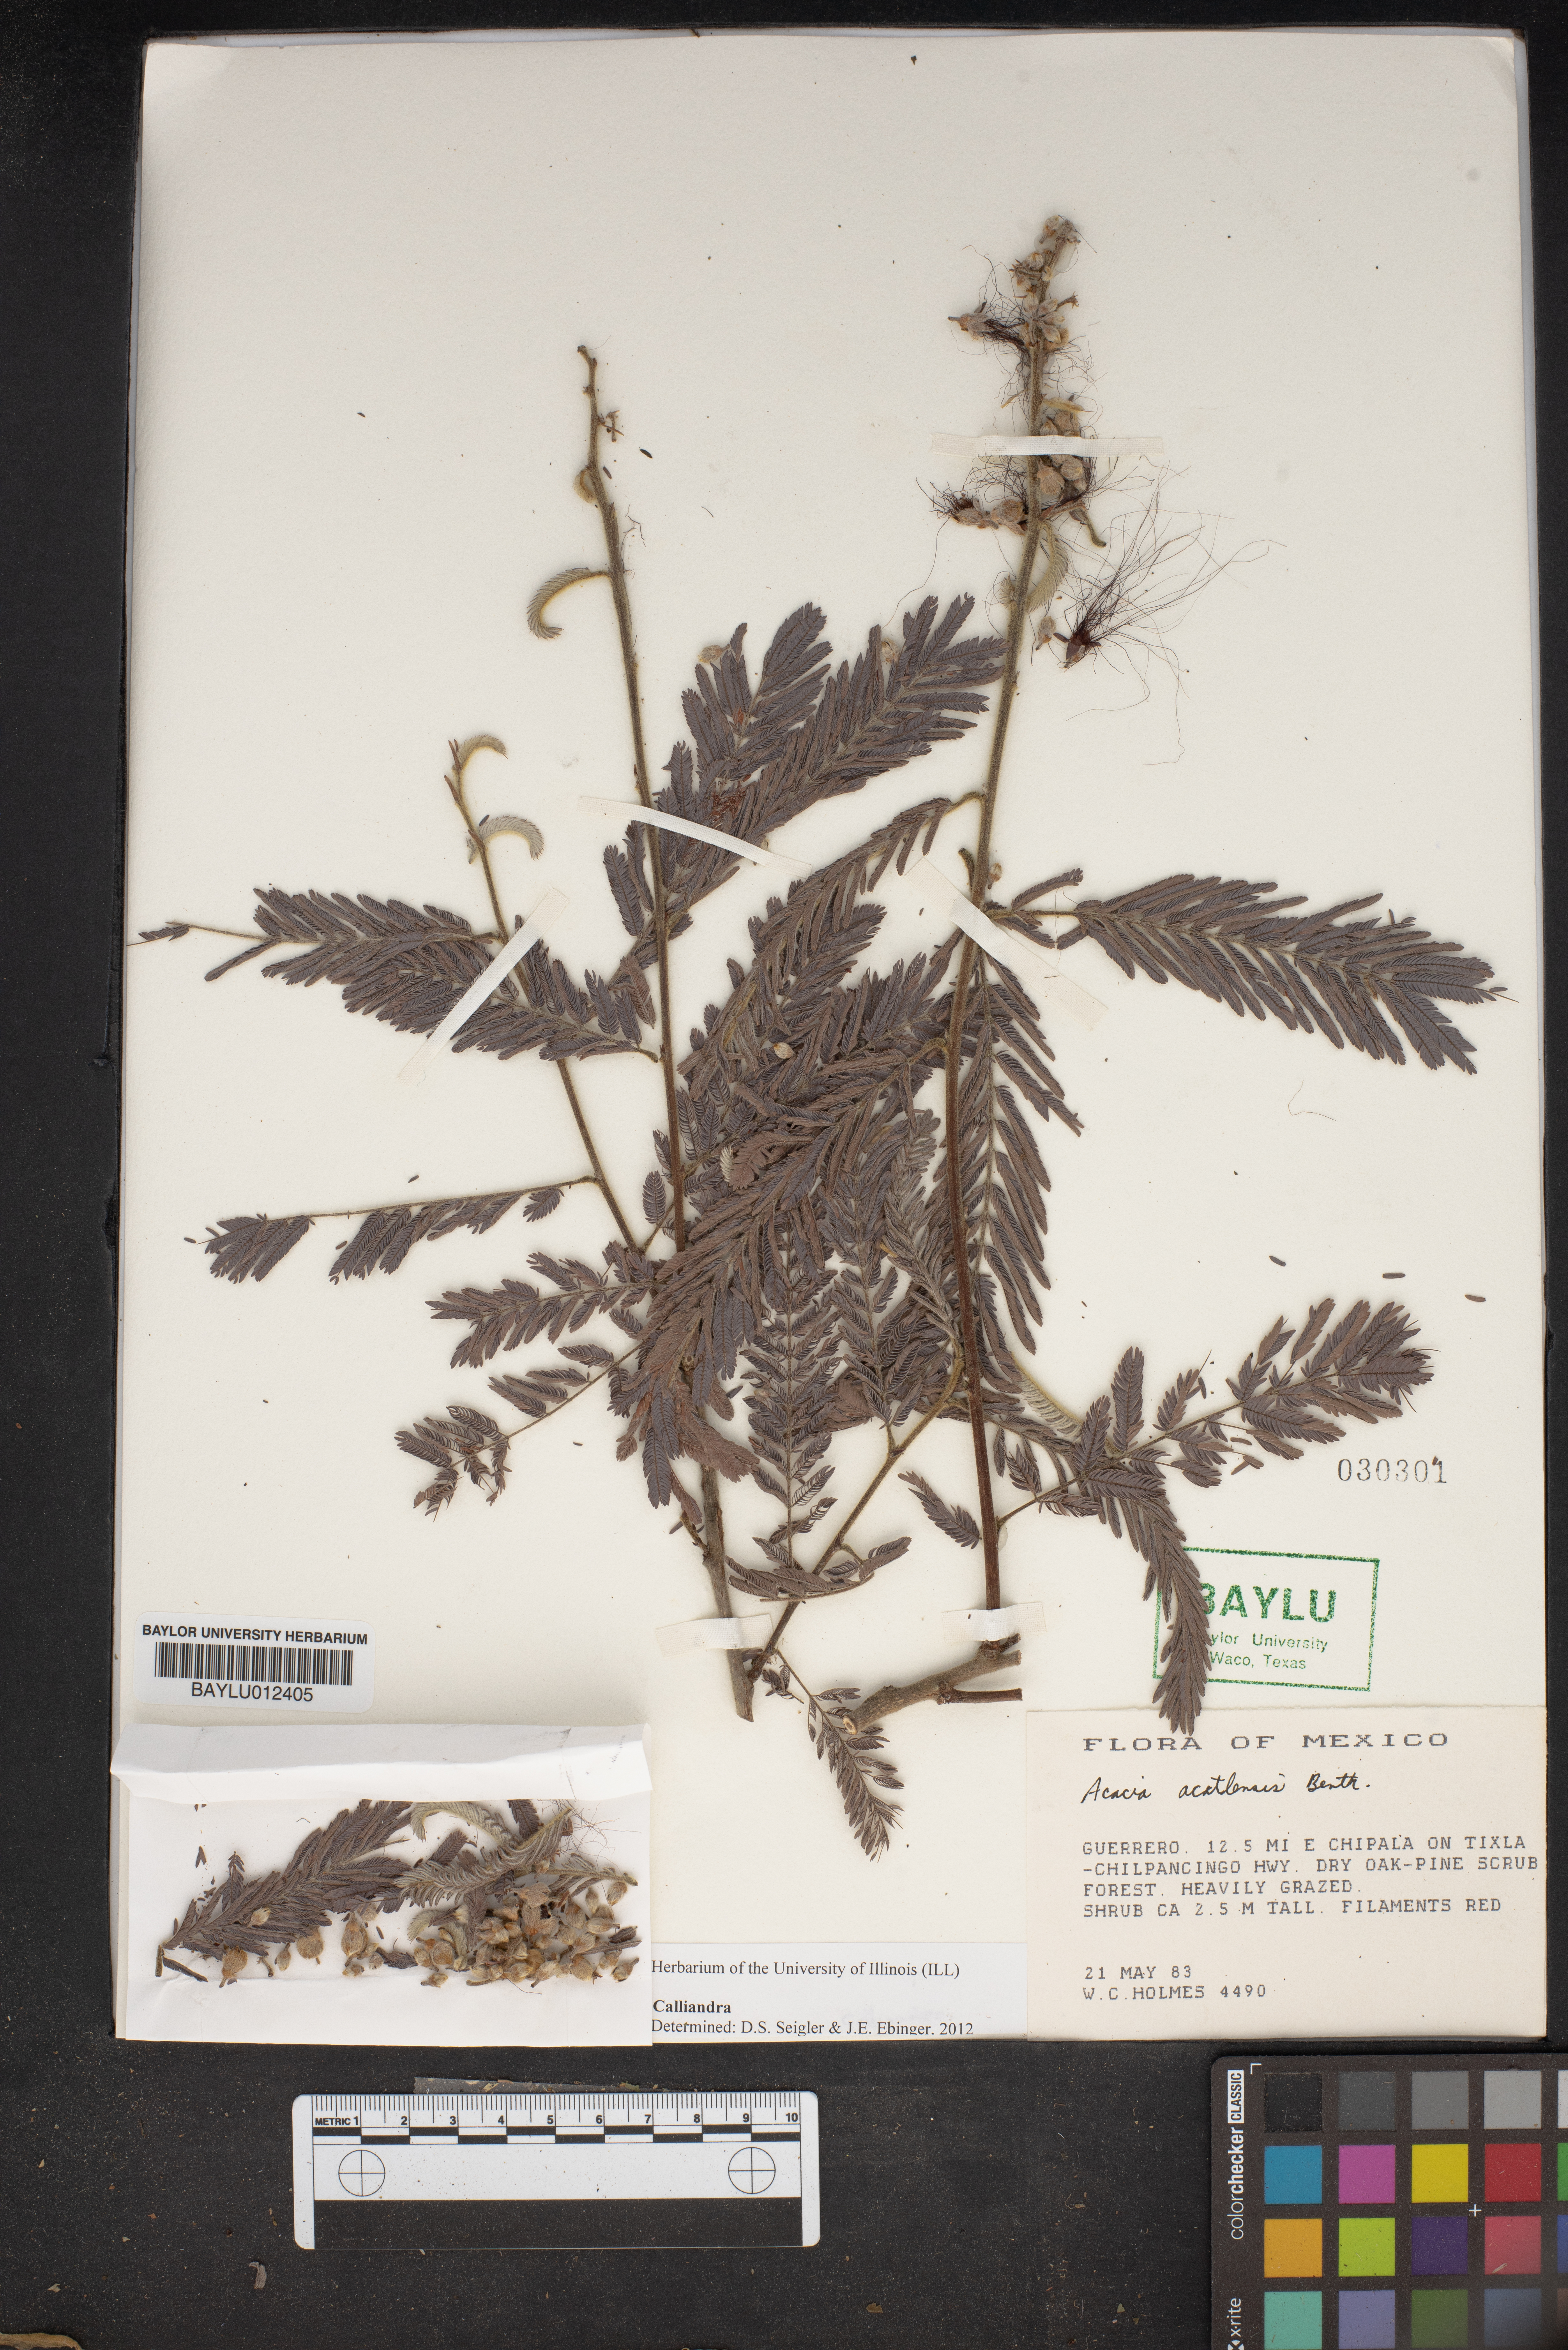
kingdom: Plantae
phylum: Tracheophyta
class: Magnoliopsida
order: Fabales
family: Fabaceae
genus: Calliandra
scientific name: Calliandra
